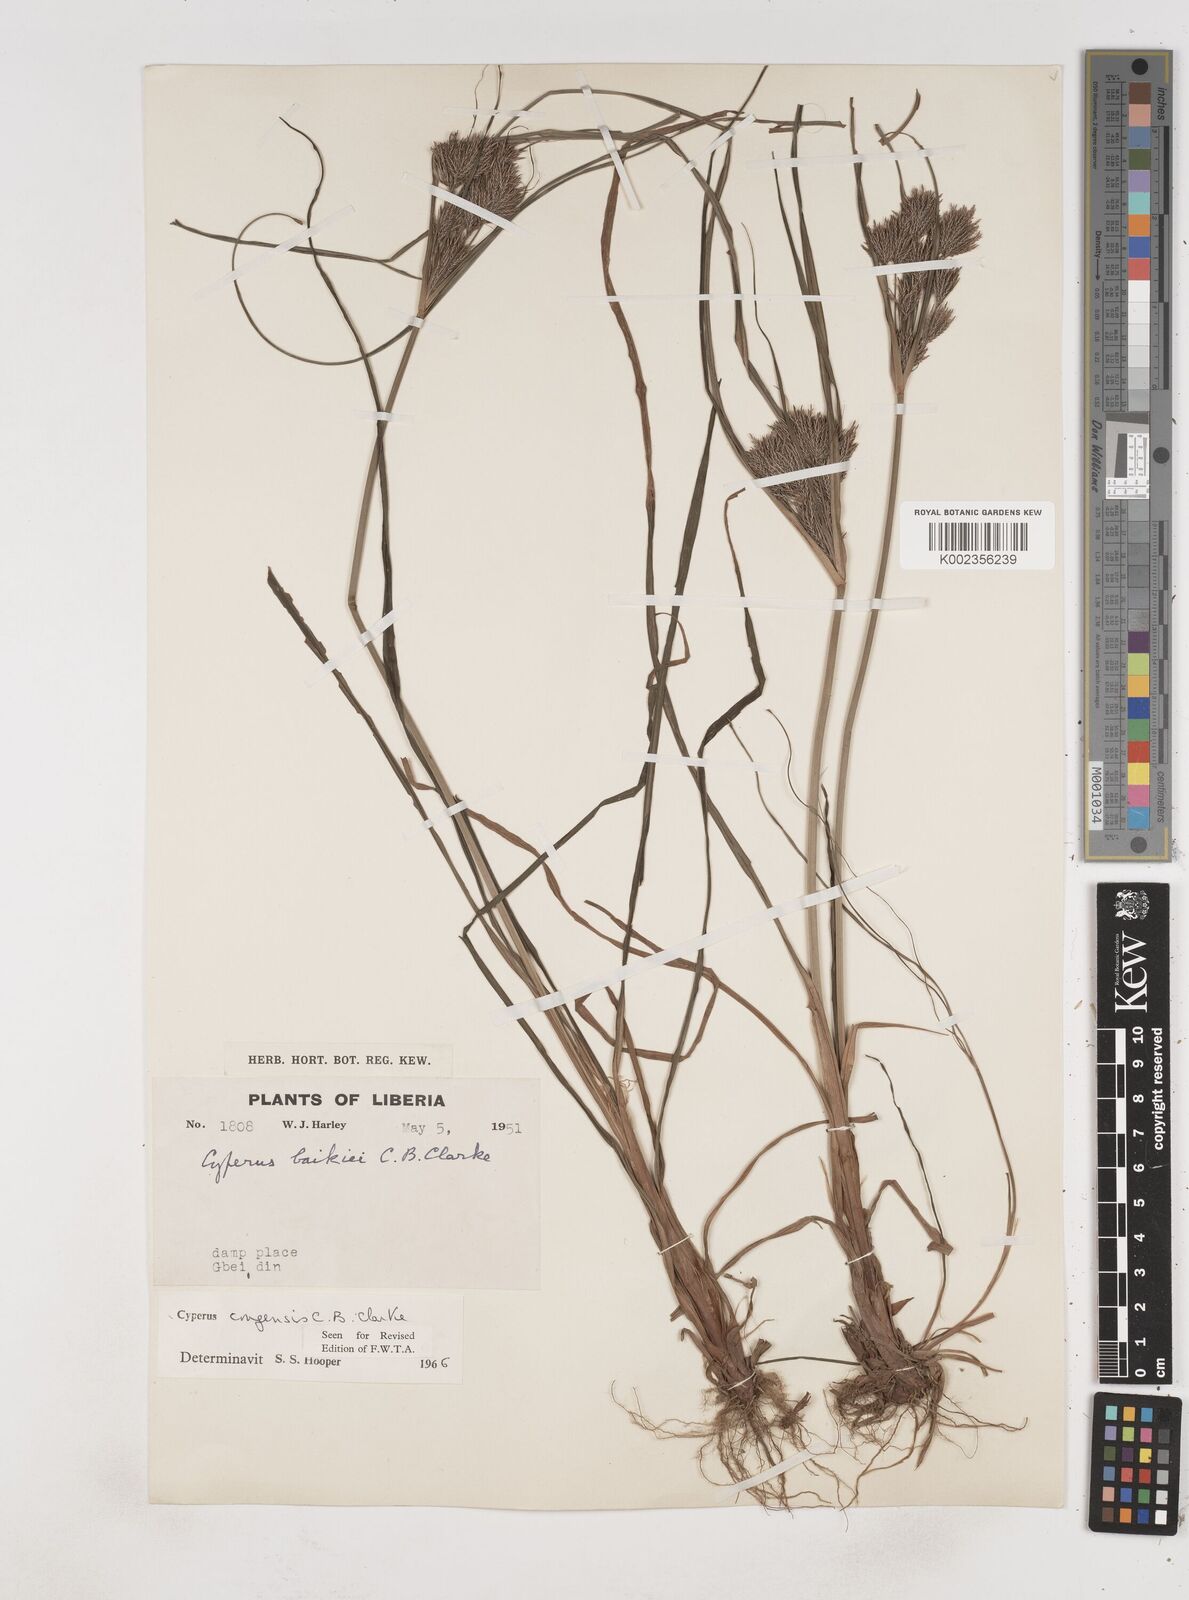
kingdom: Plantae
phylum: Tracheophyta
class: Liliopsida
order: Poales
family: Cyperaceae
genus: Cyperus
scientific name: Cyperus congensis
